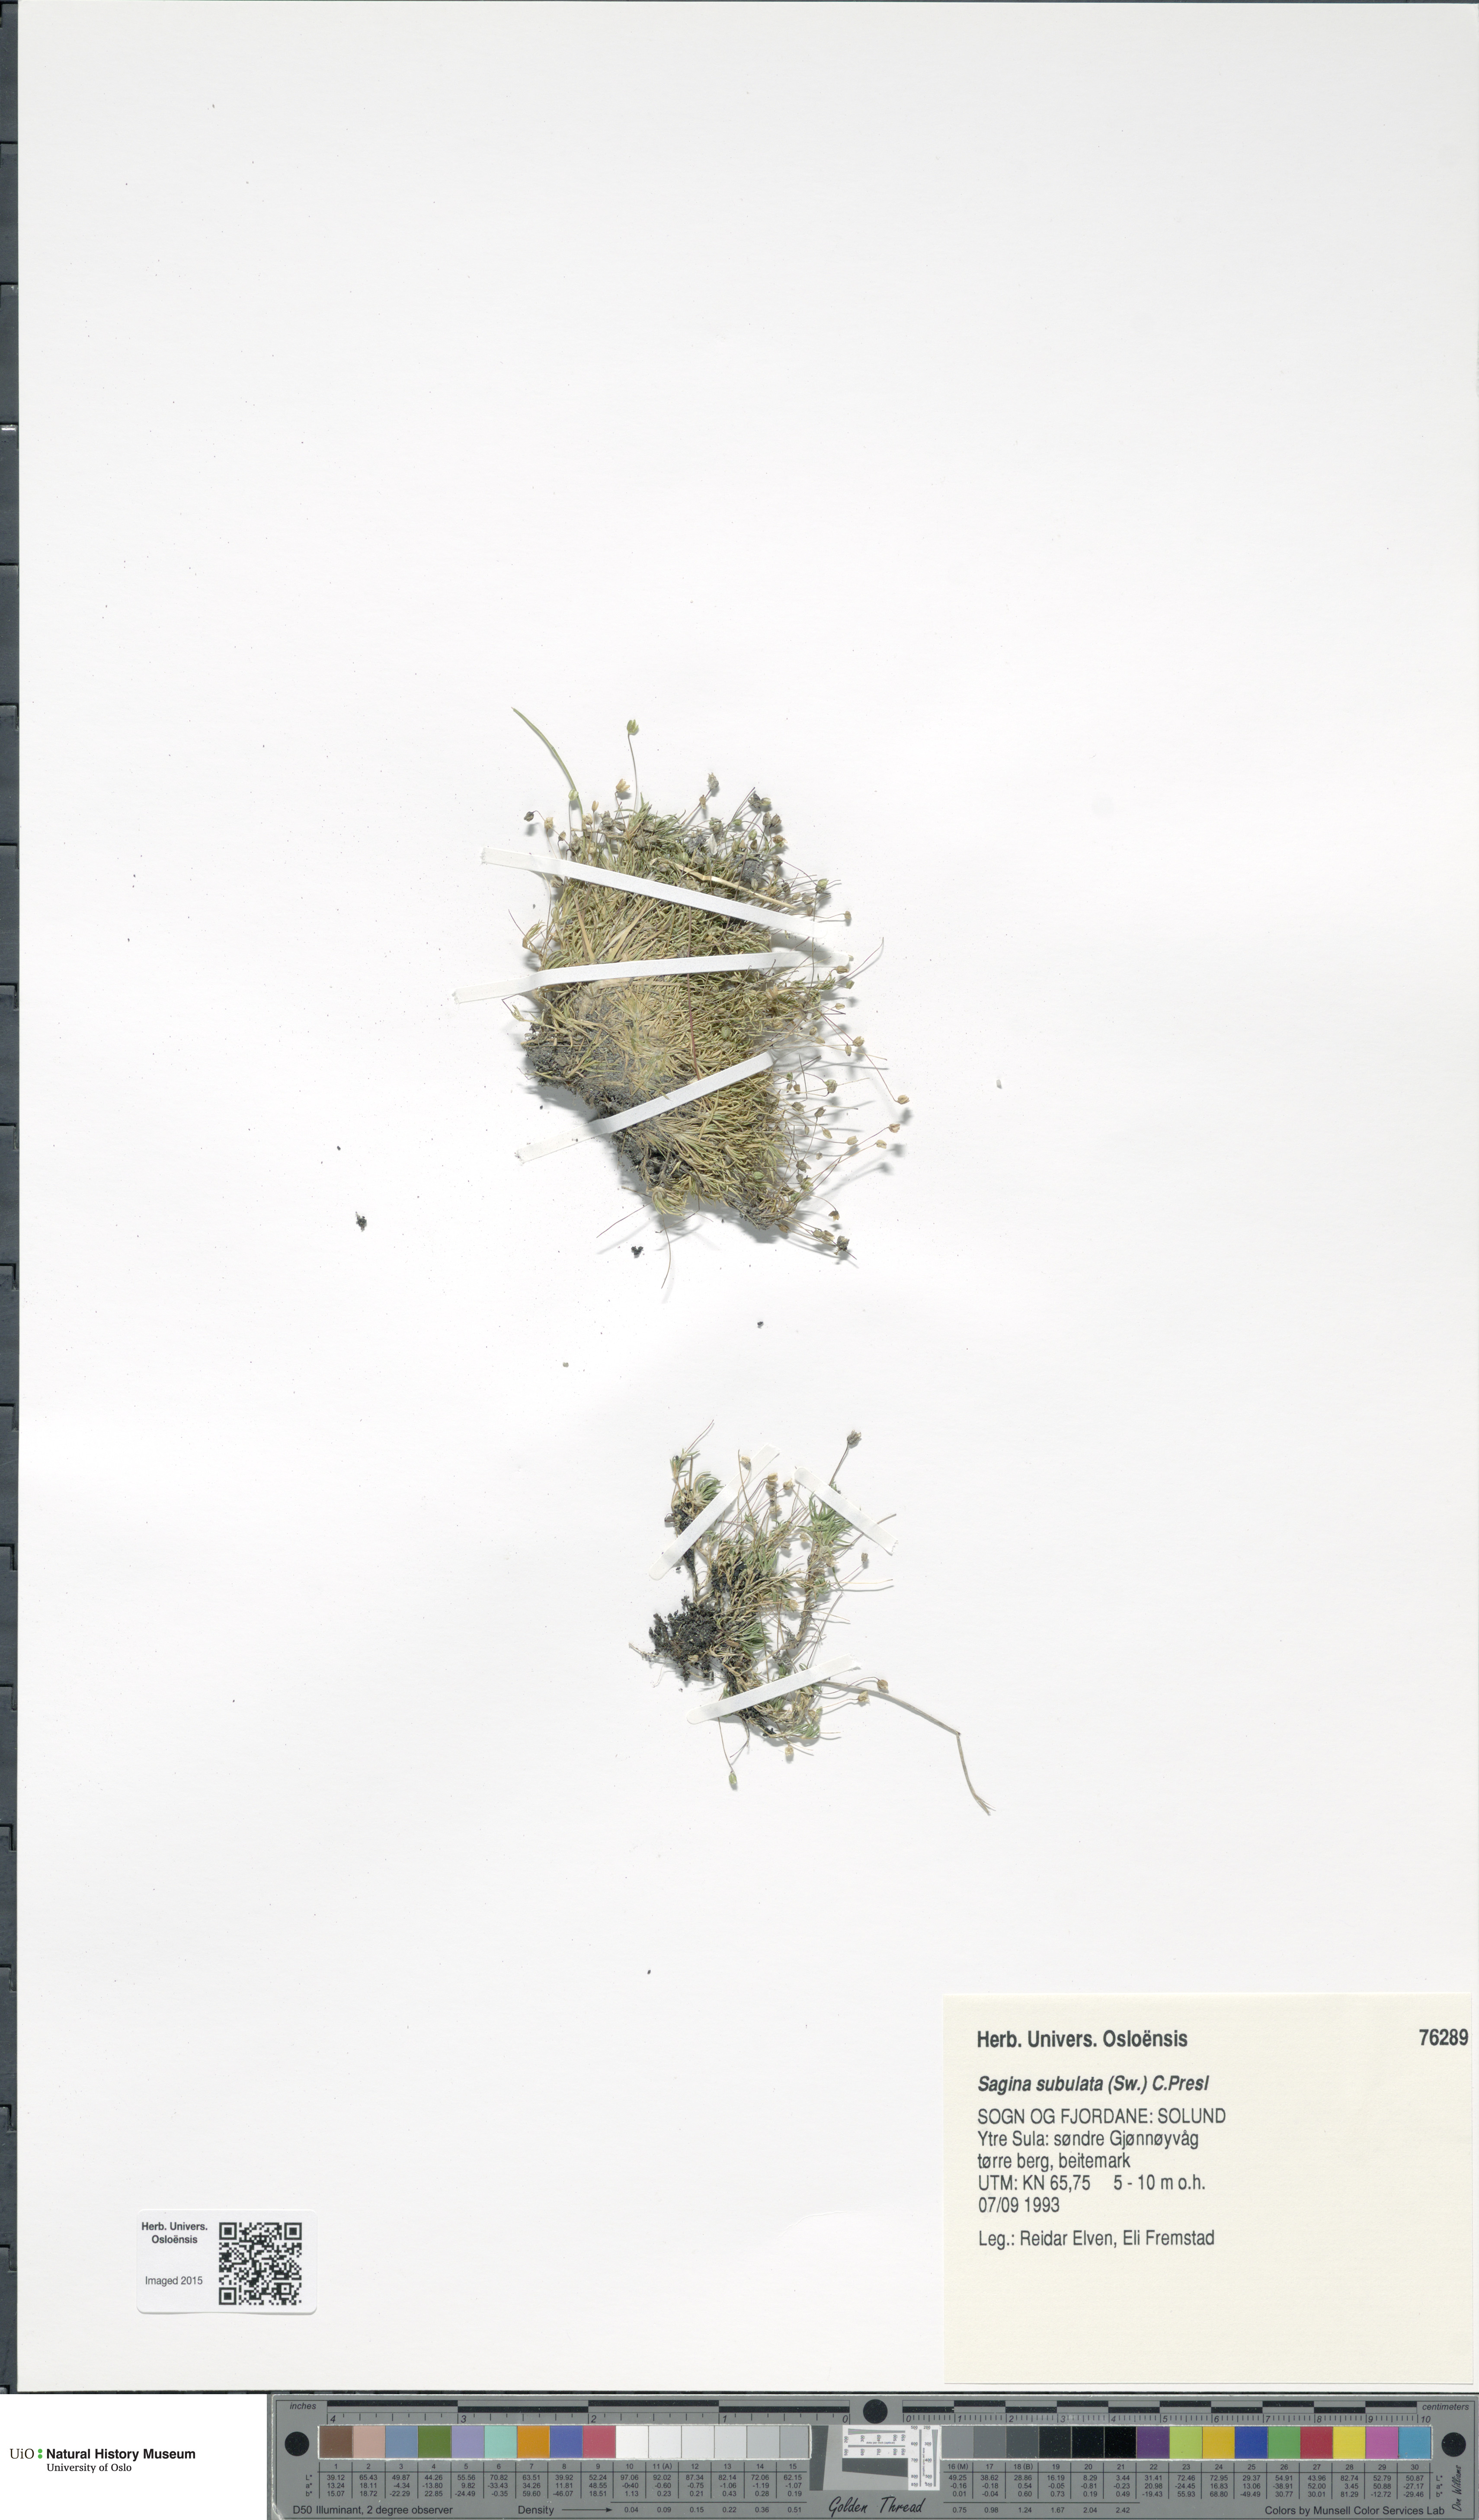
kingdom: Plantae
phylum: Tracheophyta
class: Magnoliopsida
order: Caryophyllales
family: Caryophyllaceae
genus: Sagina
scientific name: Sagina alexandrae
